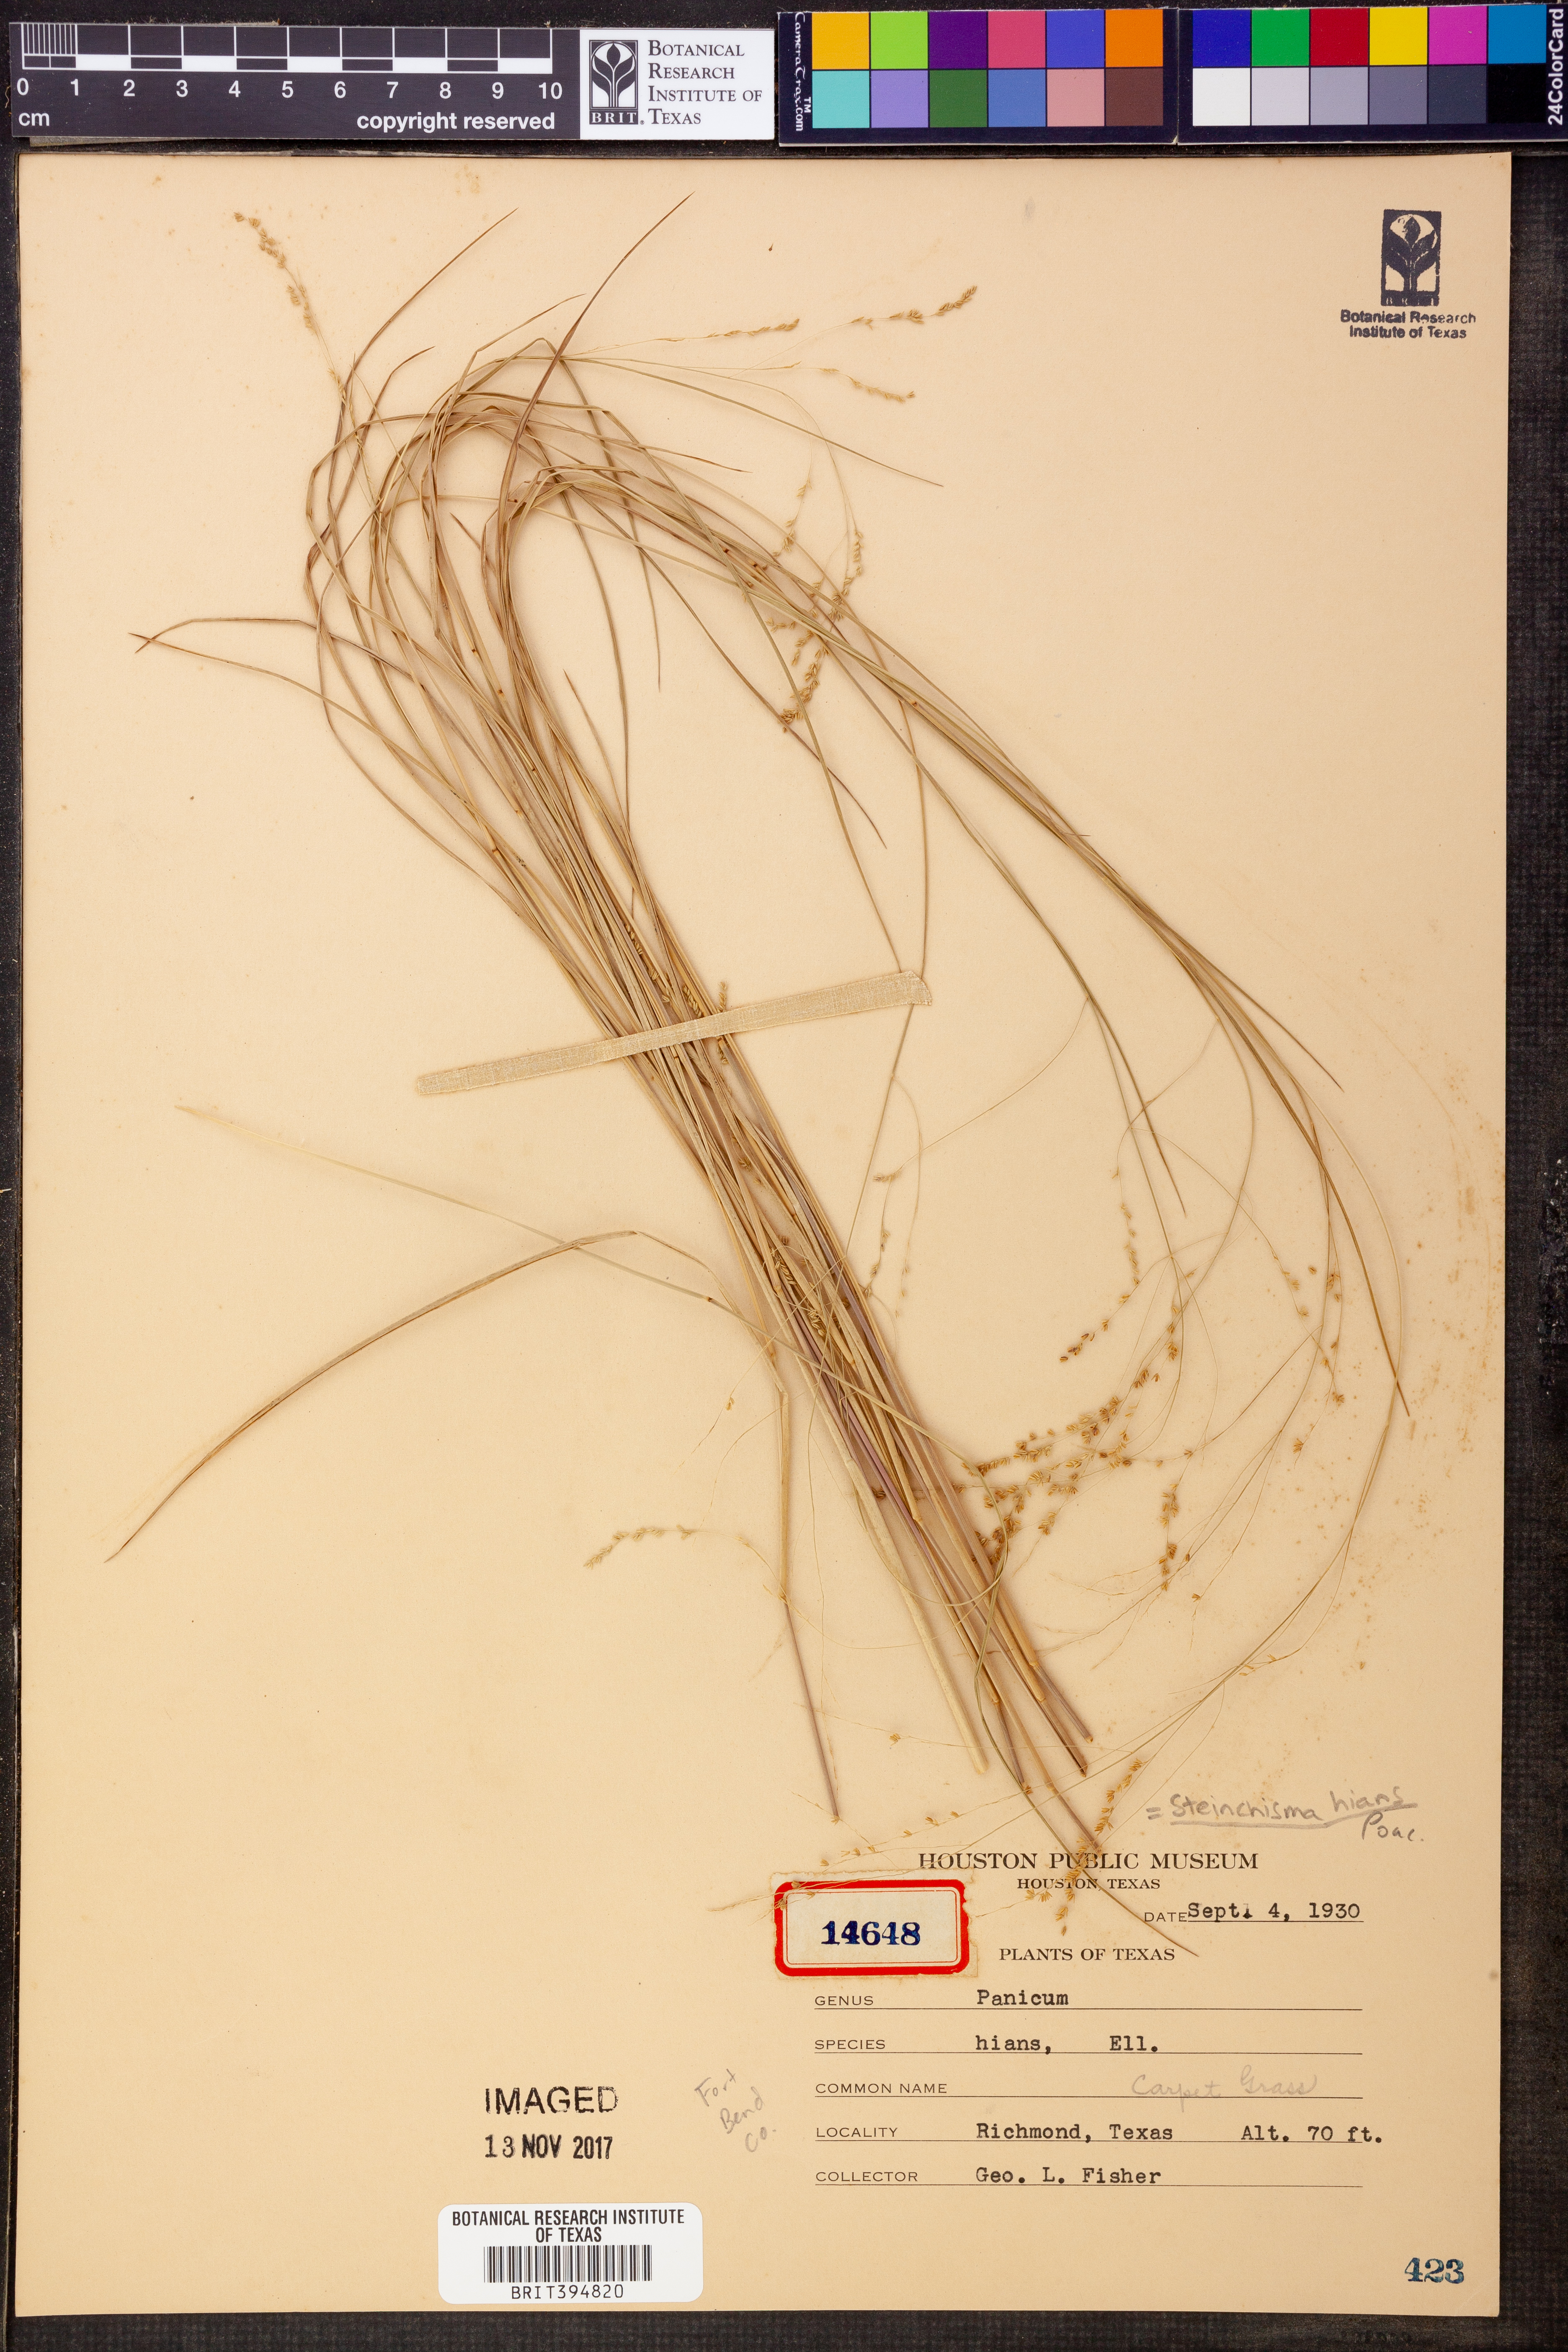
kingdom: Plantae
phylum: Tracheophyta
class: Liliopsida
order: Poales
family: Poaceae
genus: Steinchisma
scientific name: Steinchisma hians
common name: Gaping panic grass
